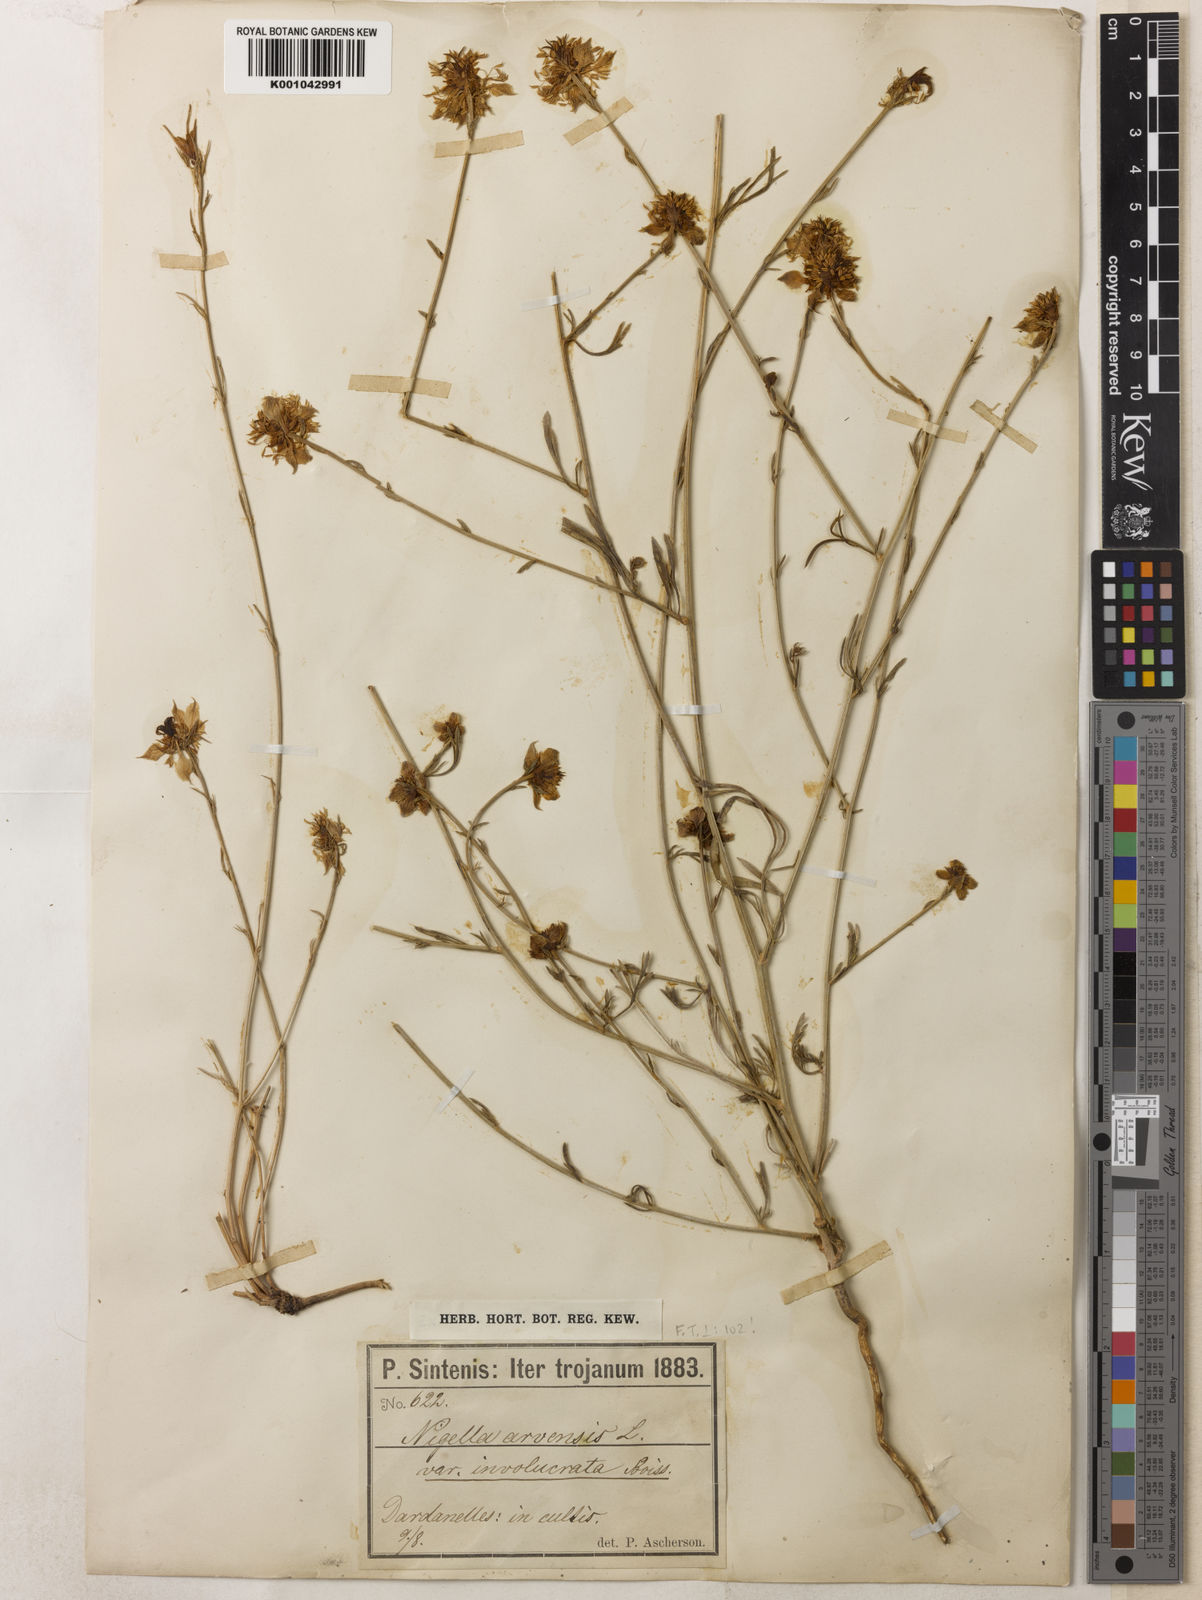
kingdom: Plantae
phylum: Tracheophyta
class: Magnoliopsida
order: Ranunculales
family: Ranunculaceae
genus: Nigella
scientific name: Nigella arvensis
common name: Wild fennel-flower
